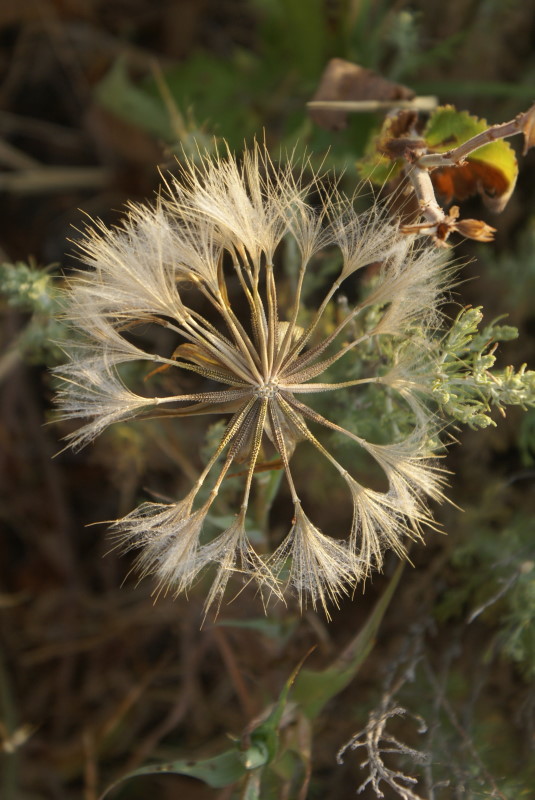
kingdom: Plantae
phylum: Tracheophyta
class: Magnoliopsida
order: Asterales
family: Asteraceae
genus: Scorzonera
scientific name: Scorzonera
